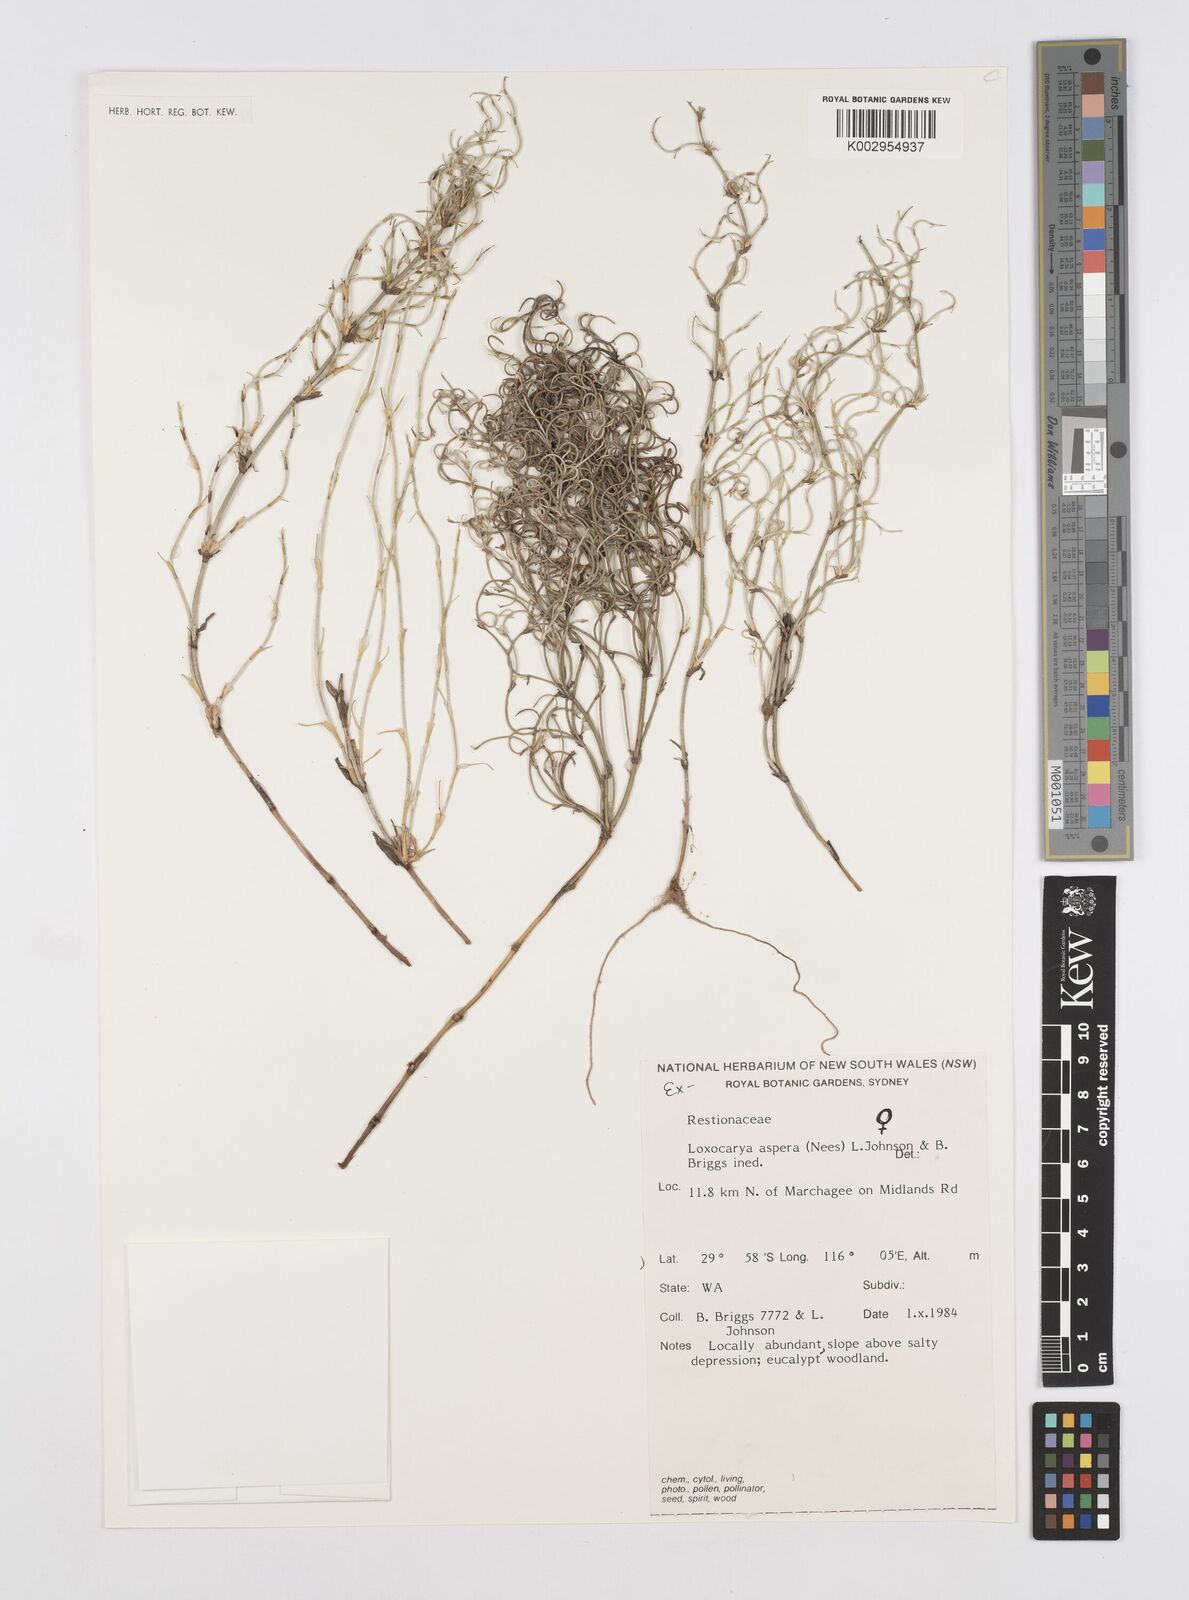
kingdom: Plantae
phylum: Tracheophyta
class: Liliopsida
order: Poales
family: Restionaceae
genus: Desmocladus
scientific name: Desmocladus asper
